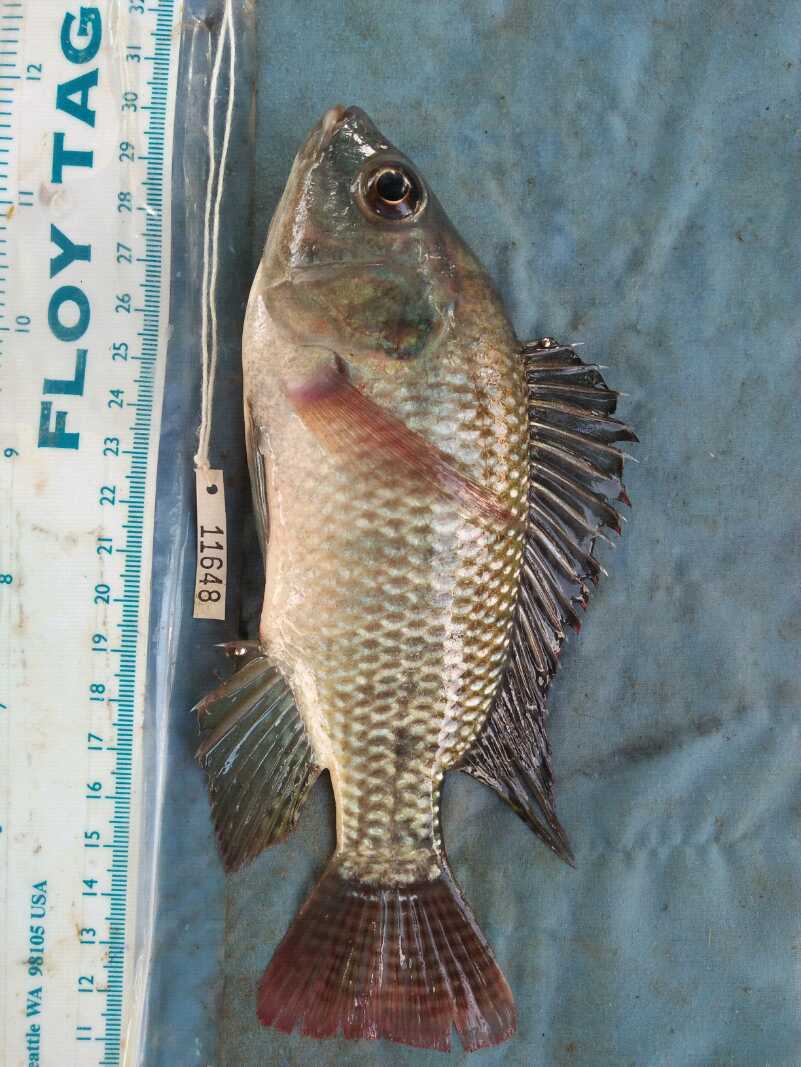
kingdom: Animalia
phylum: Chordata
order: Perciformes
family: Cichlidae
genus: Oreochromis
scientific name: Oreochromis niloticus
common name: Nile tilapia
